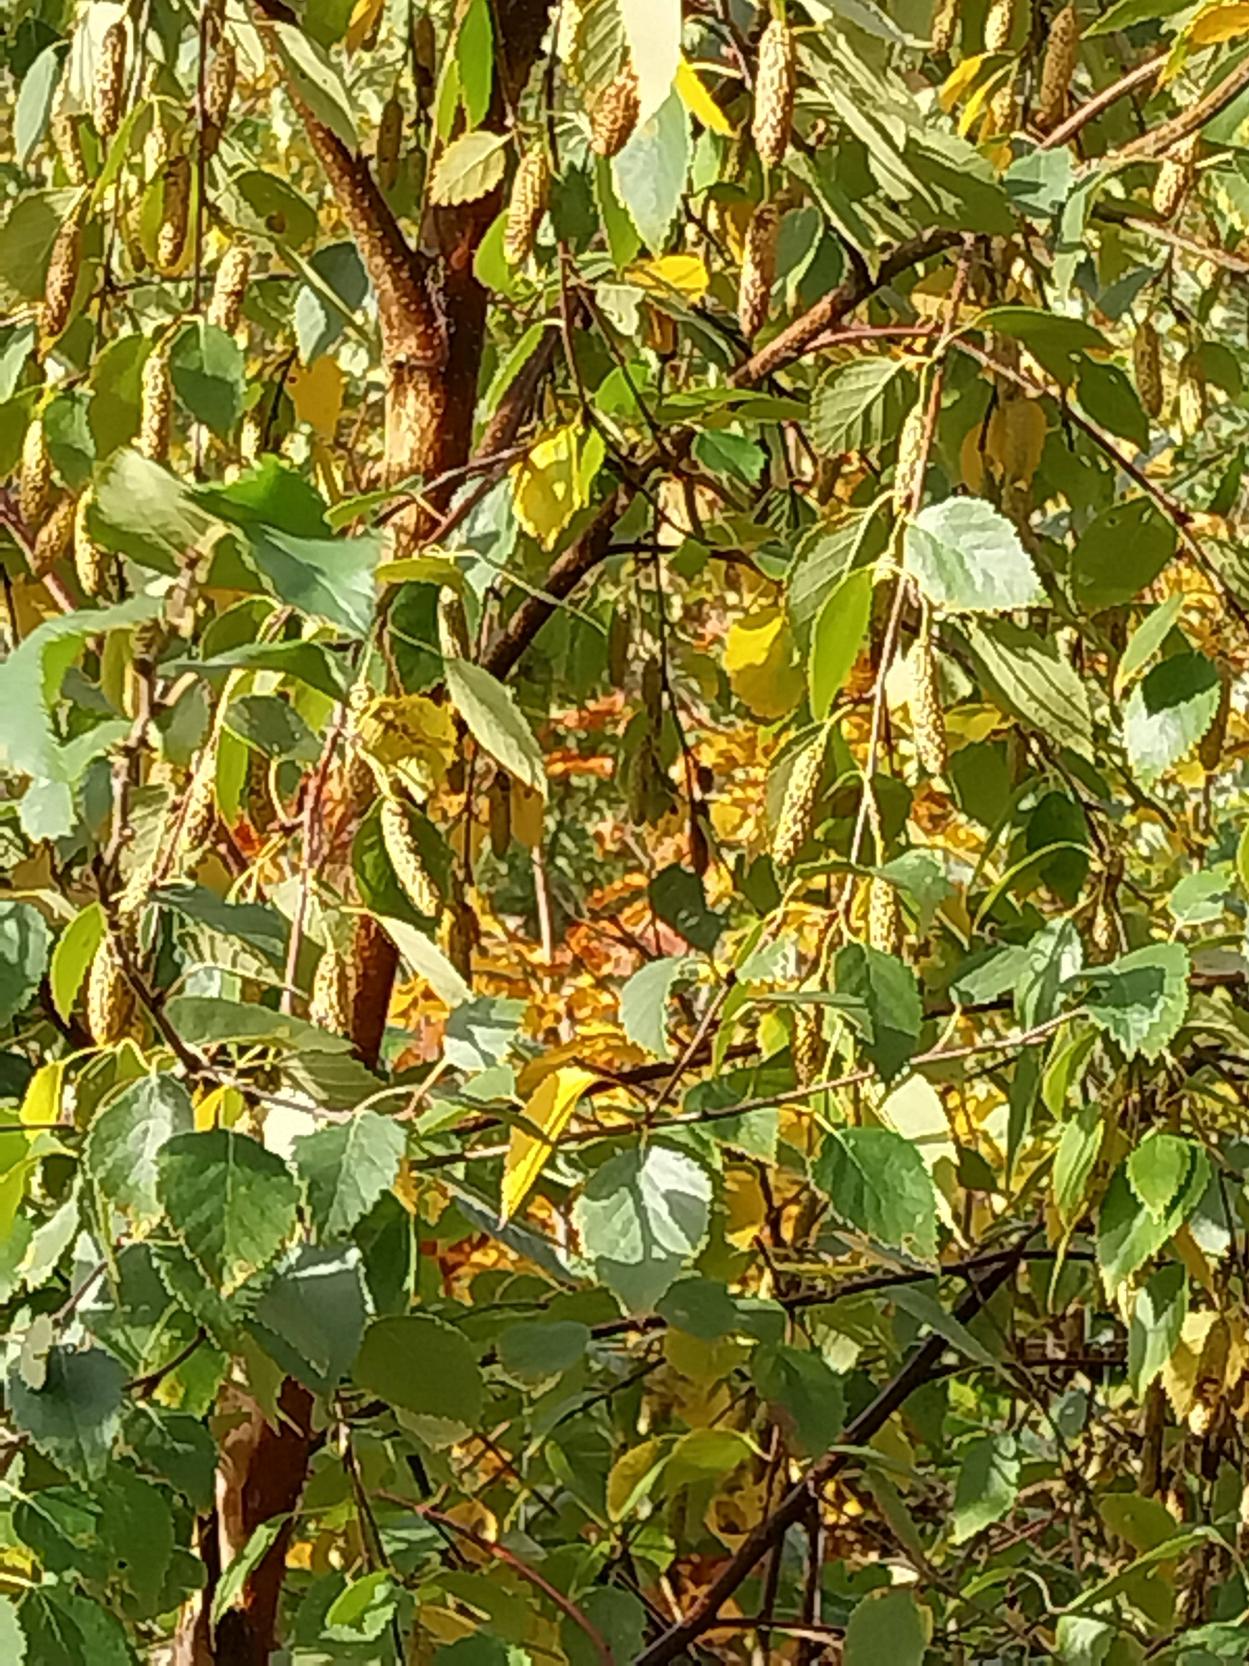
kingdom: Plantae
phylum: Tracheophyta
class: Magnoliopsida
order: Fagales
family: Betulaceae
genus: Betula
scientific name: Betula pendula
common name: Vorte-birk
